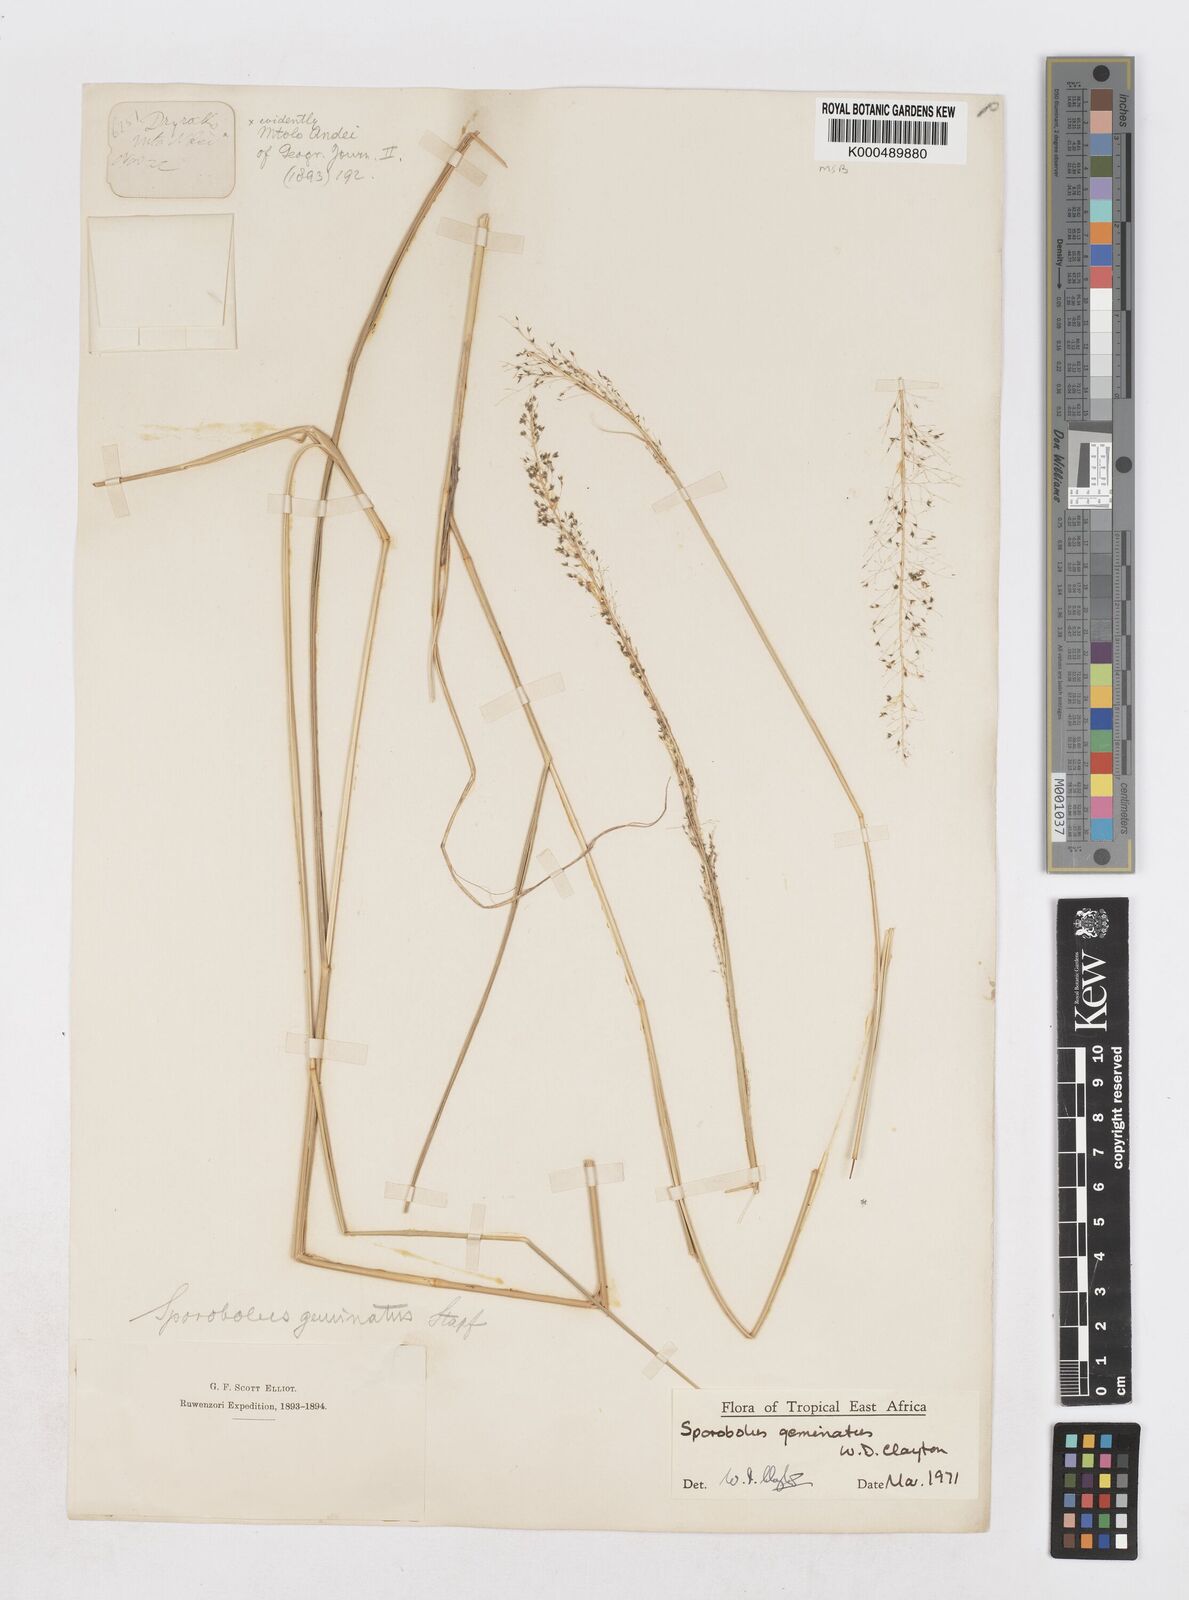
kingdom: Plantae
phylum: Tracheophyta
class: Liliopsida
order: Poales
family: Poaceae
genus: Sporobolus
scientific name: Sporobolus geminatus
